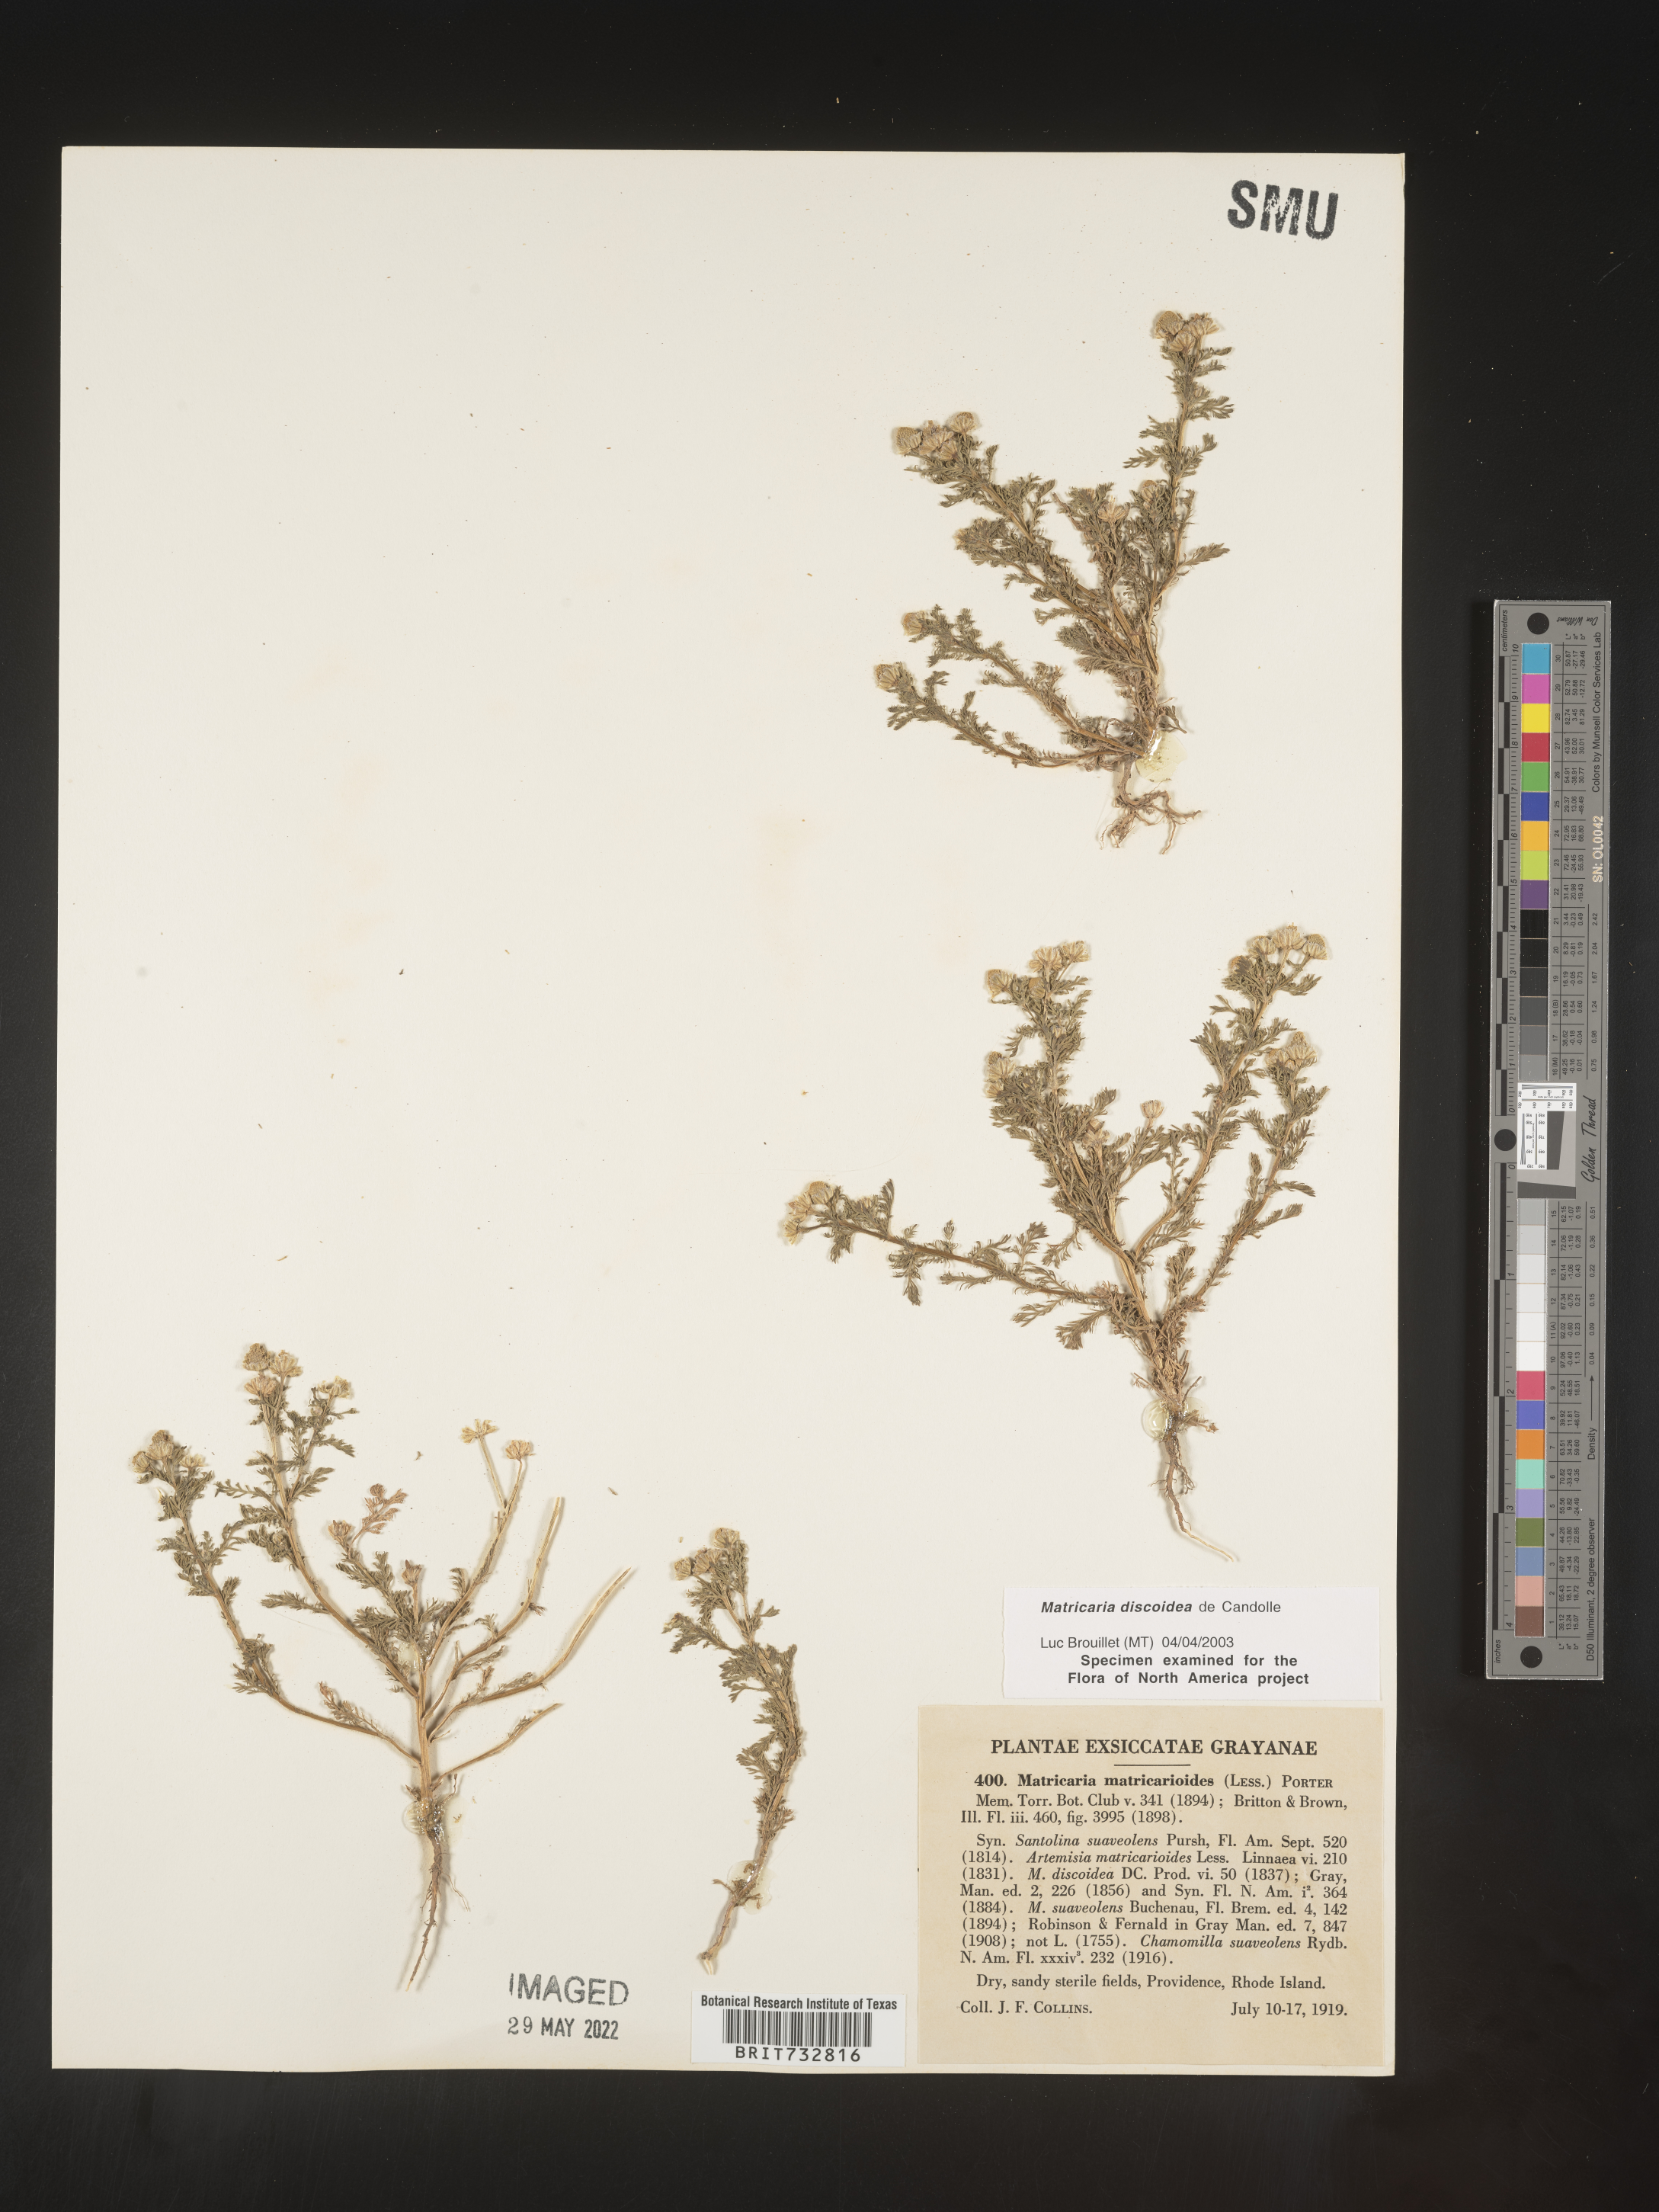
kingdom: Plantae
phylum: Tracheophyta
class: Magnoliopsida
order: Asterales
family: Asteraceae
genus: Matricaria
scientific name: Matricaria discoidea
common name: Disc mayweed
